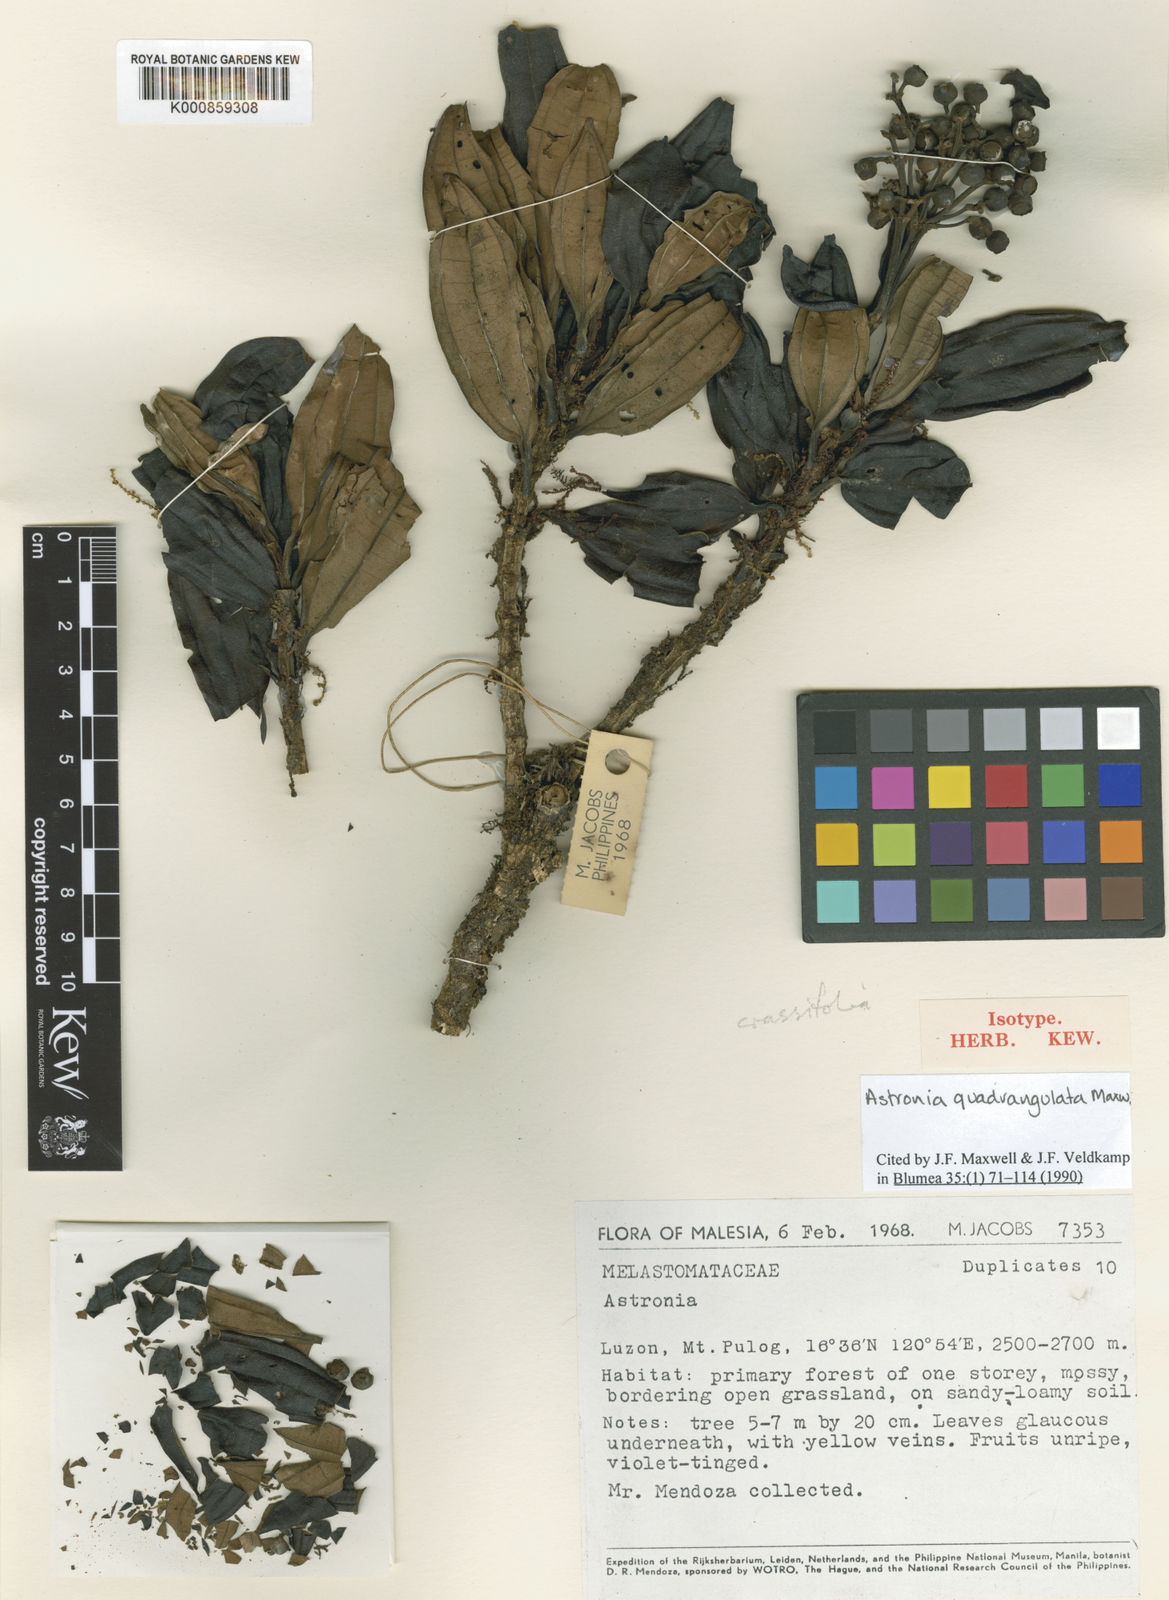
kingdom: Plantae
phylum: Tracheophyta
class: Magnoliopsida
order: Myrtales
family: Melastomataceae
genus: Astronia
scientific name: Astronia quadrangulata
